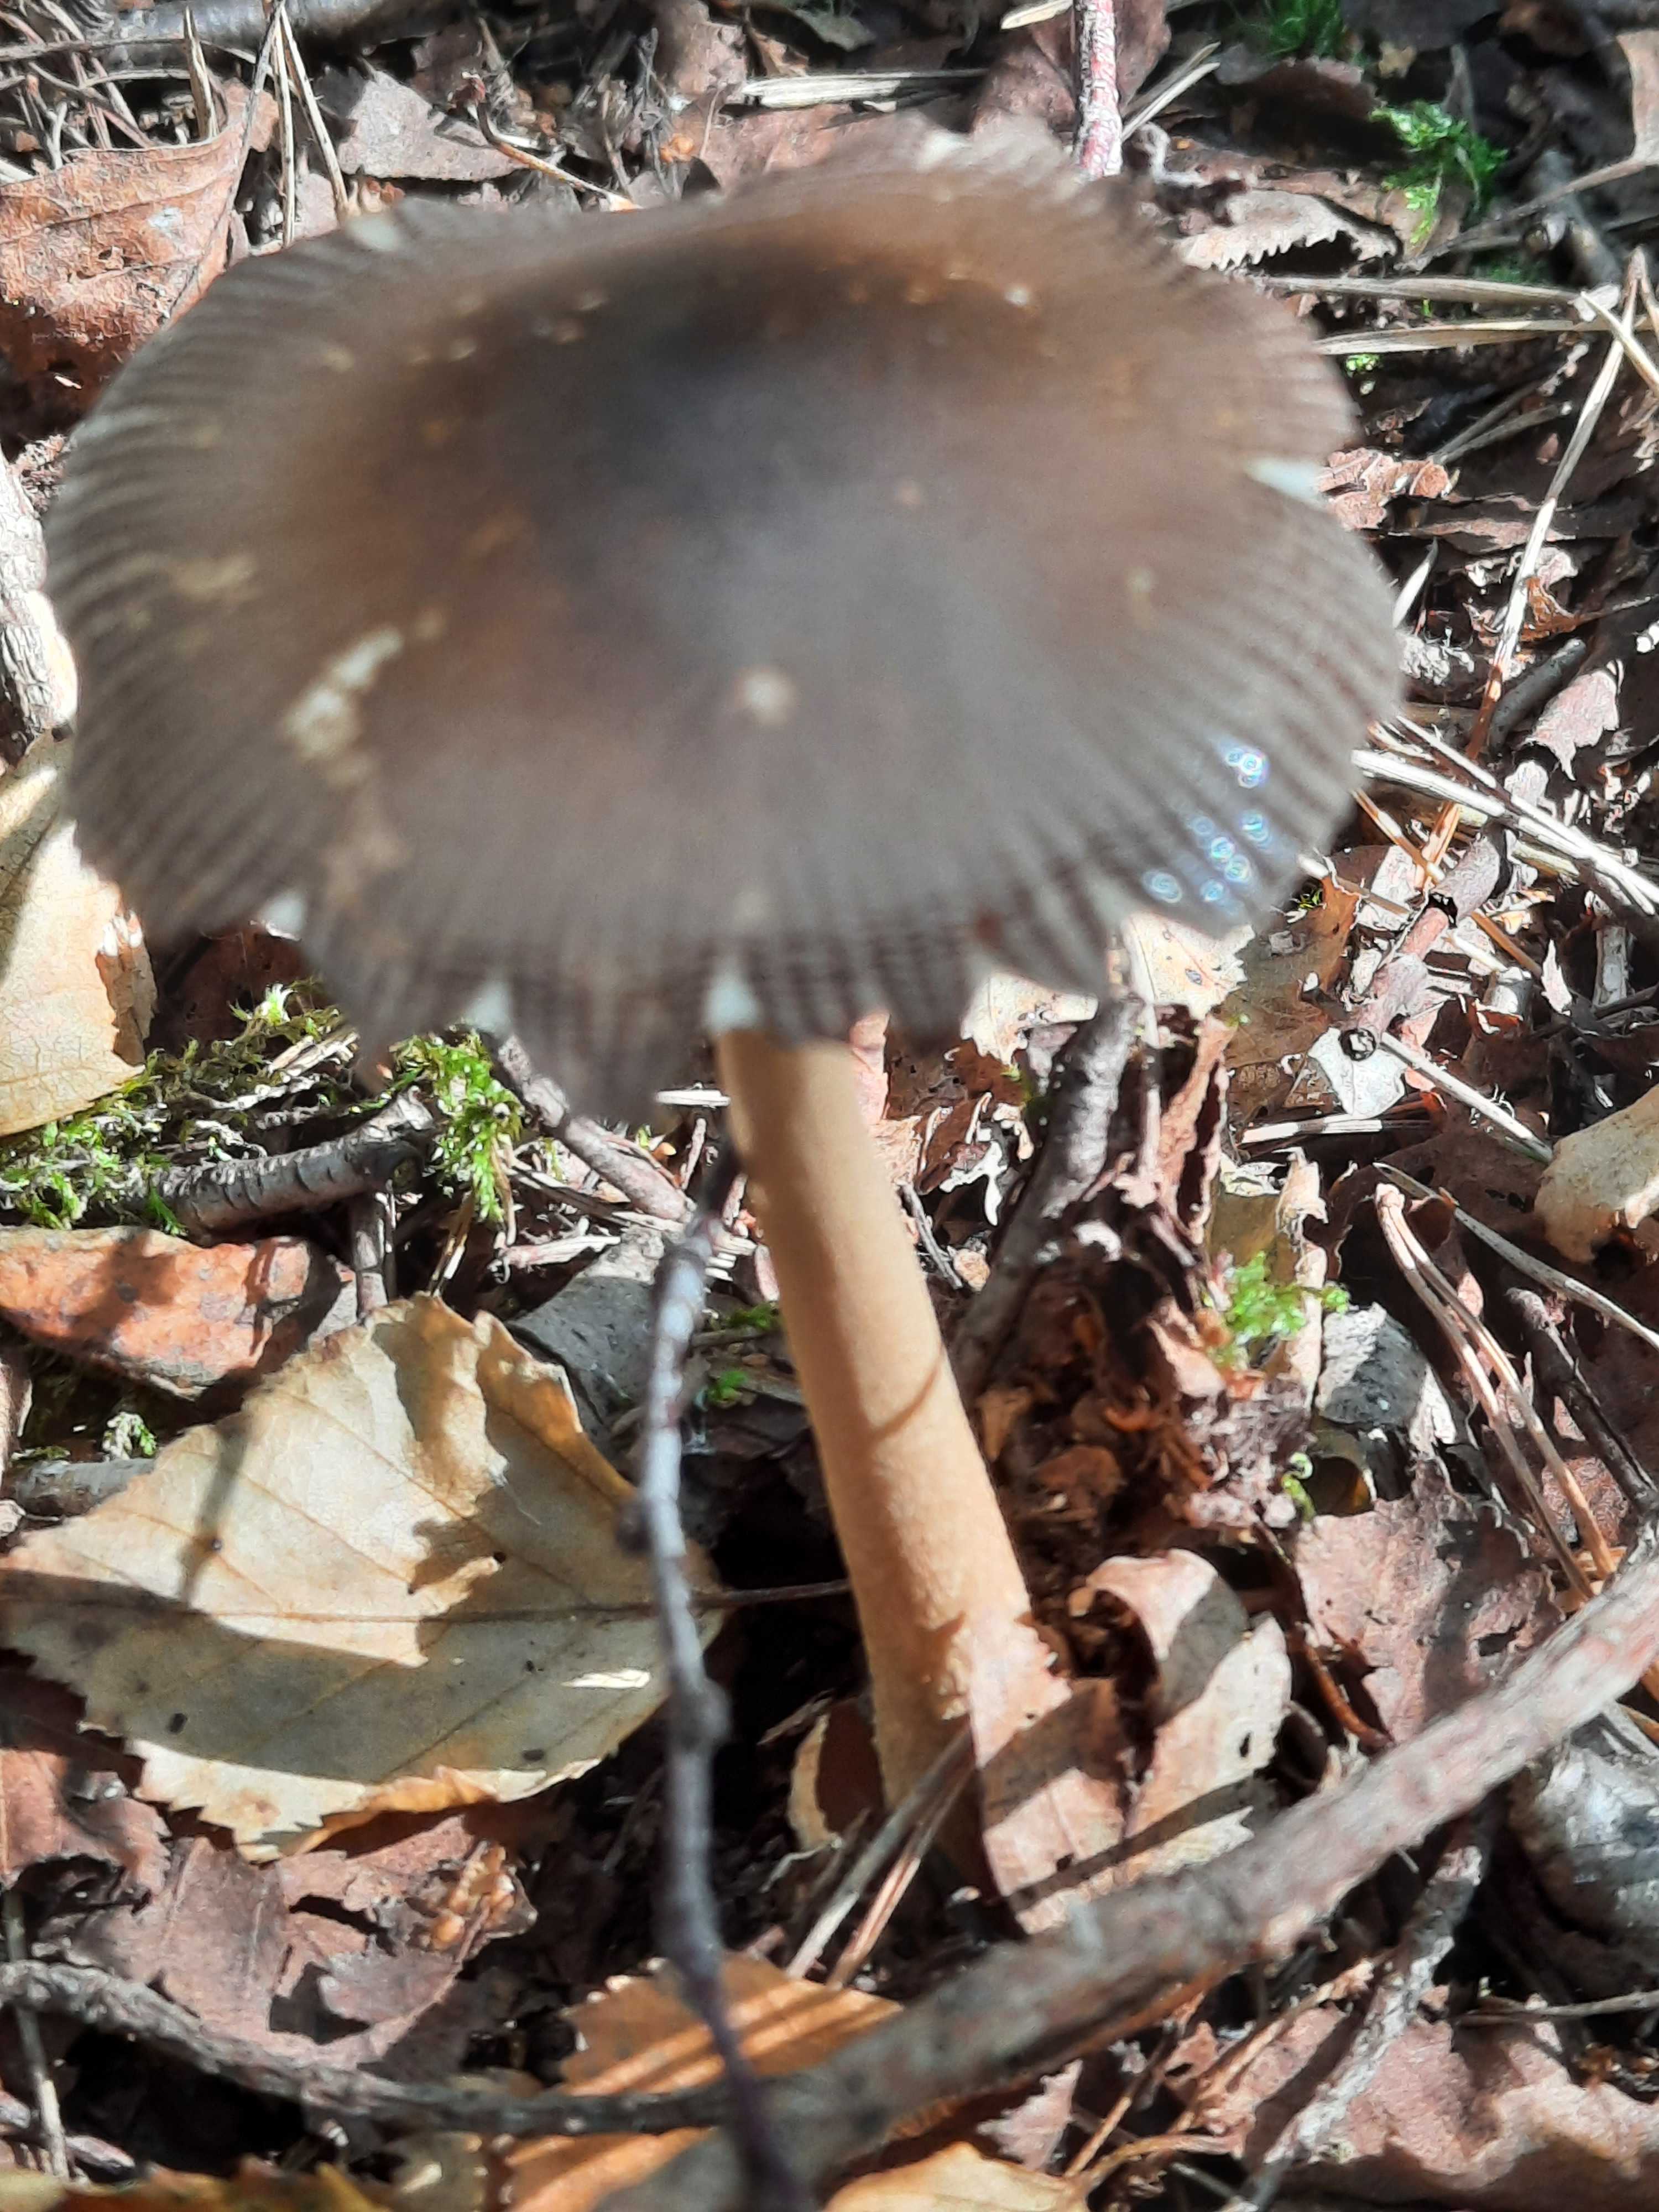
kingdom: Fungi
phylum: Basidiomycota
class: Agaricomycetes
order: Agaricales
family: Amanitaceae
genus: Amanita
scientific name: Amanita fulva
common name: brun kam-fluesvamp
